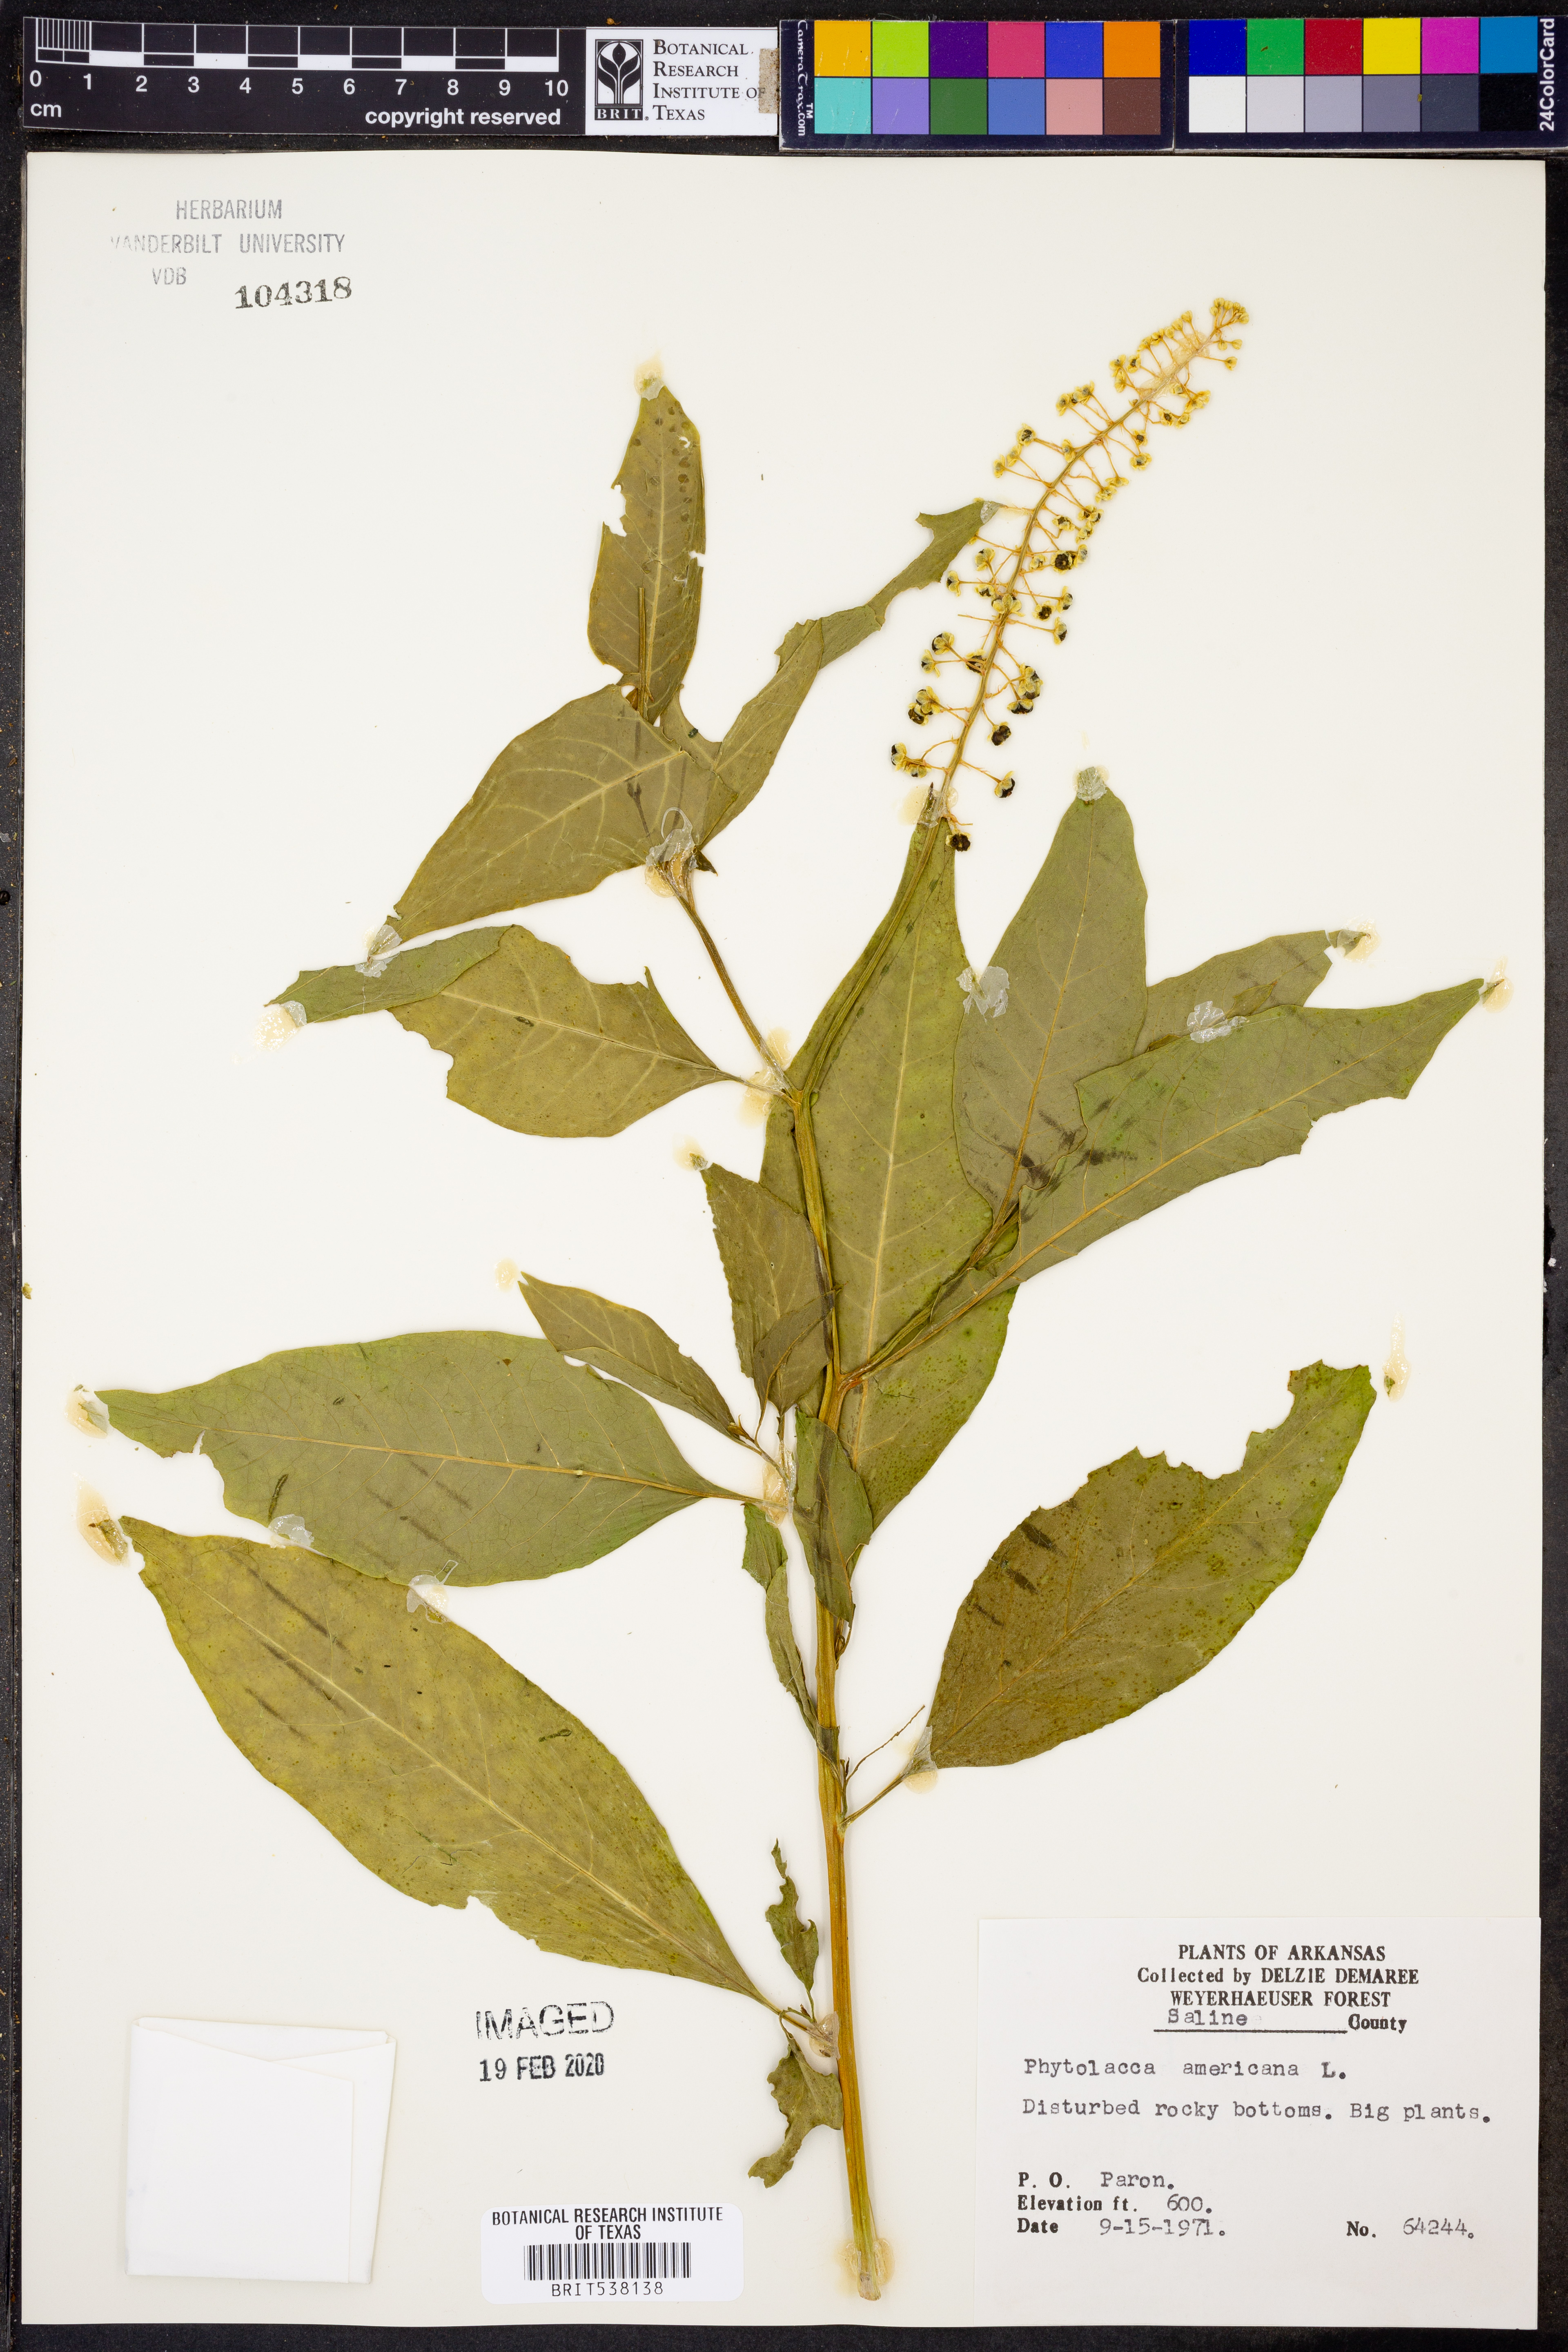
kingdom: Plantae
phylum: Tracheophyta
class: Magnoliopsida
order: Caryophyllales
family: Phytolaccaceae
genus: Phytolacca
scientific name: Phytolacca americana
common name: American pokeweed
